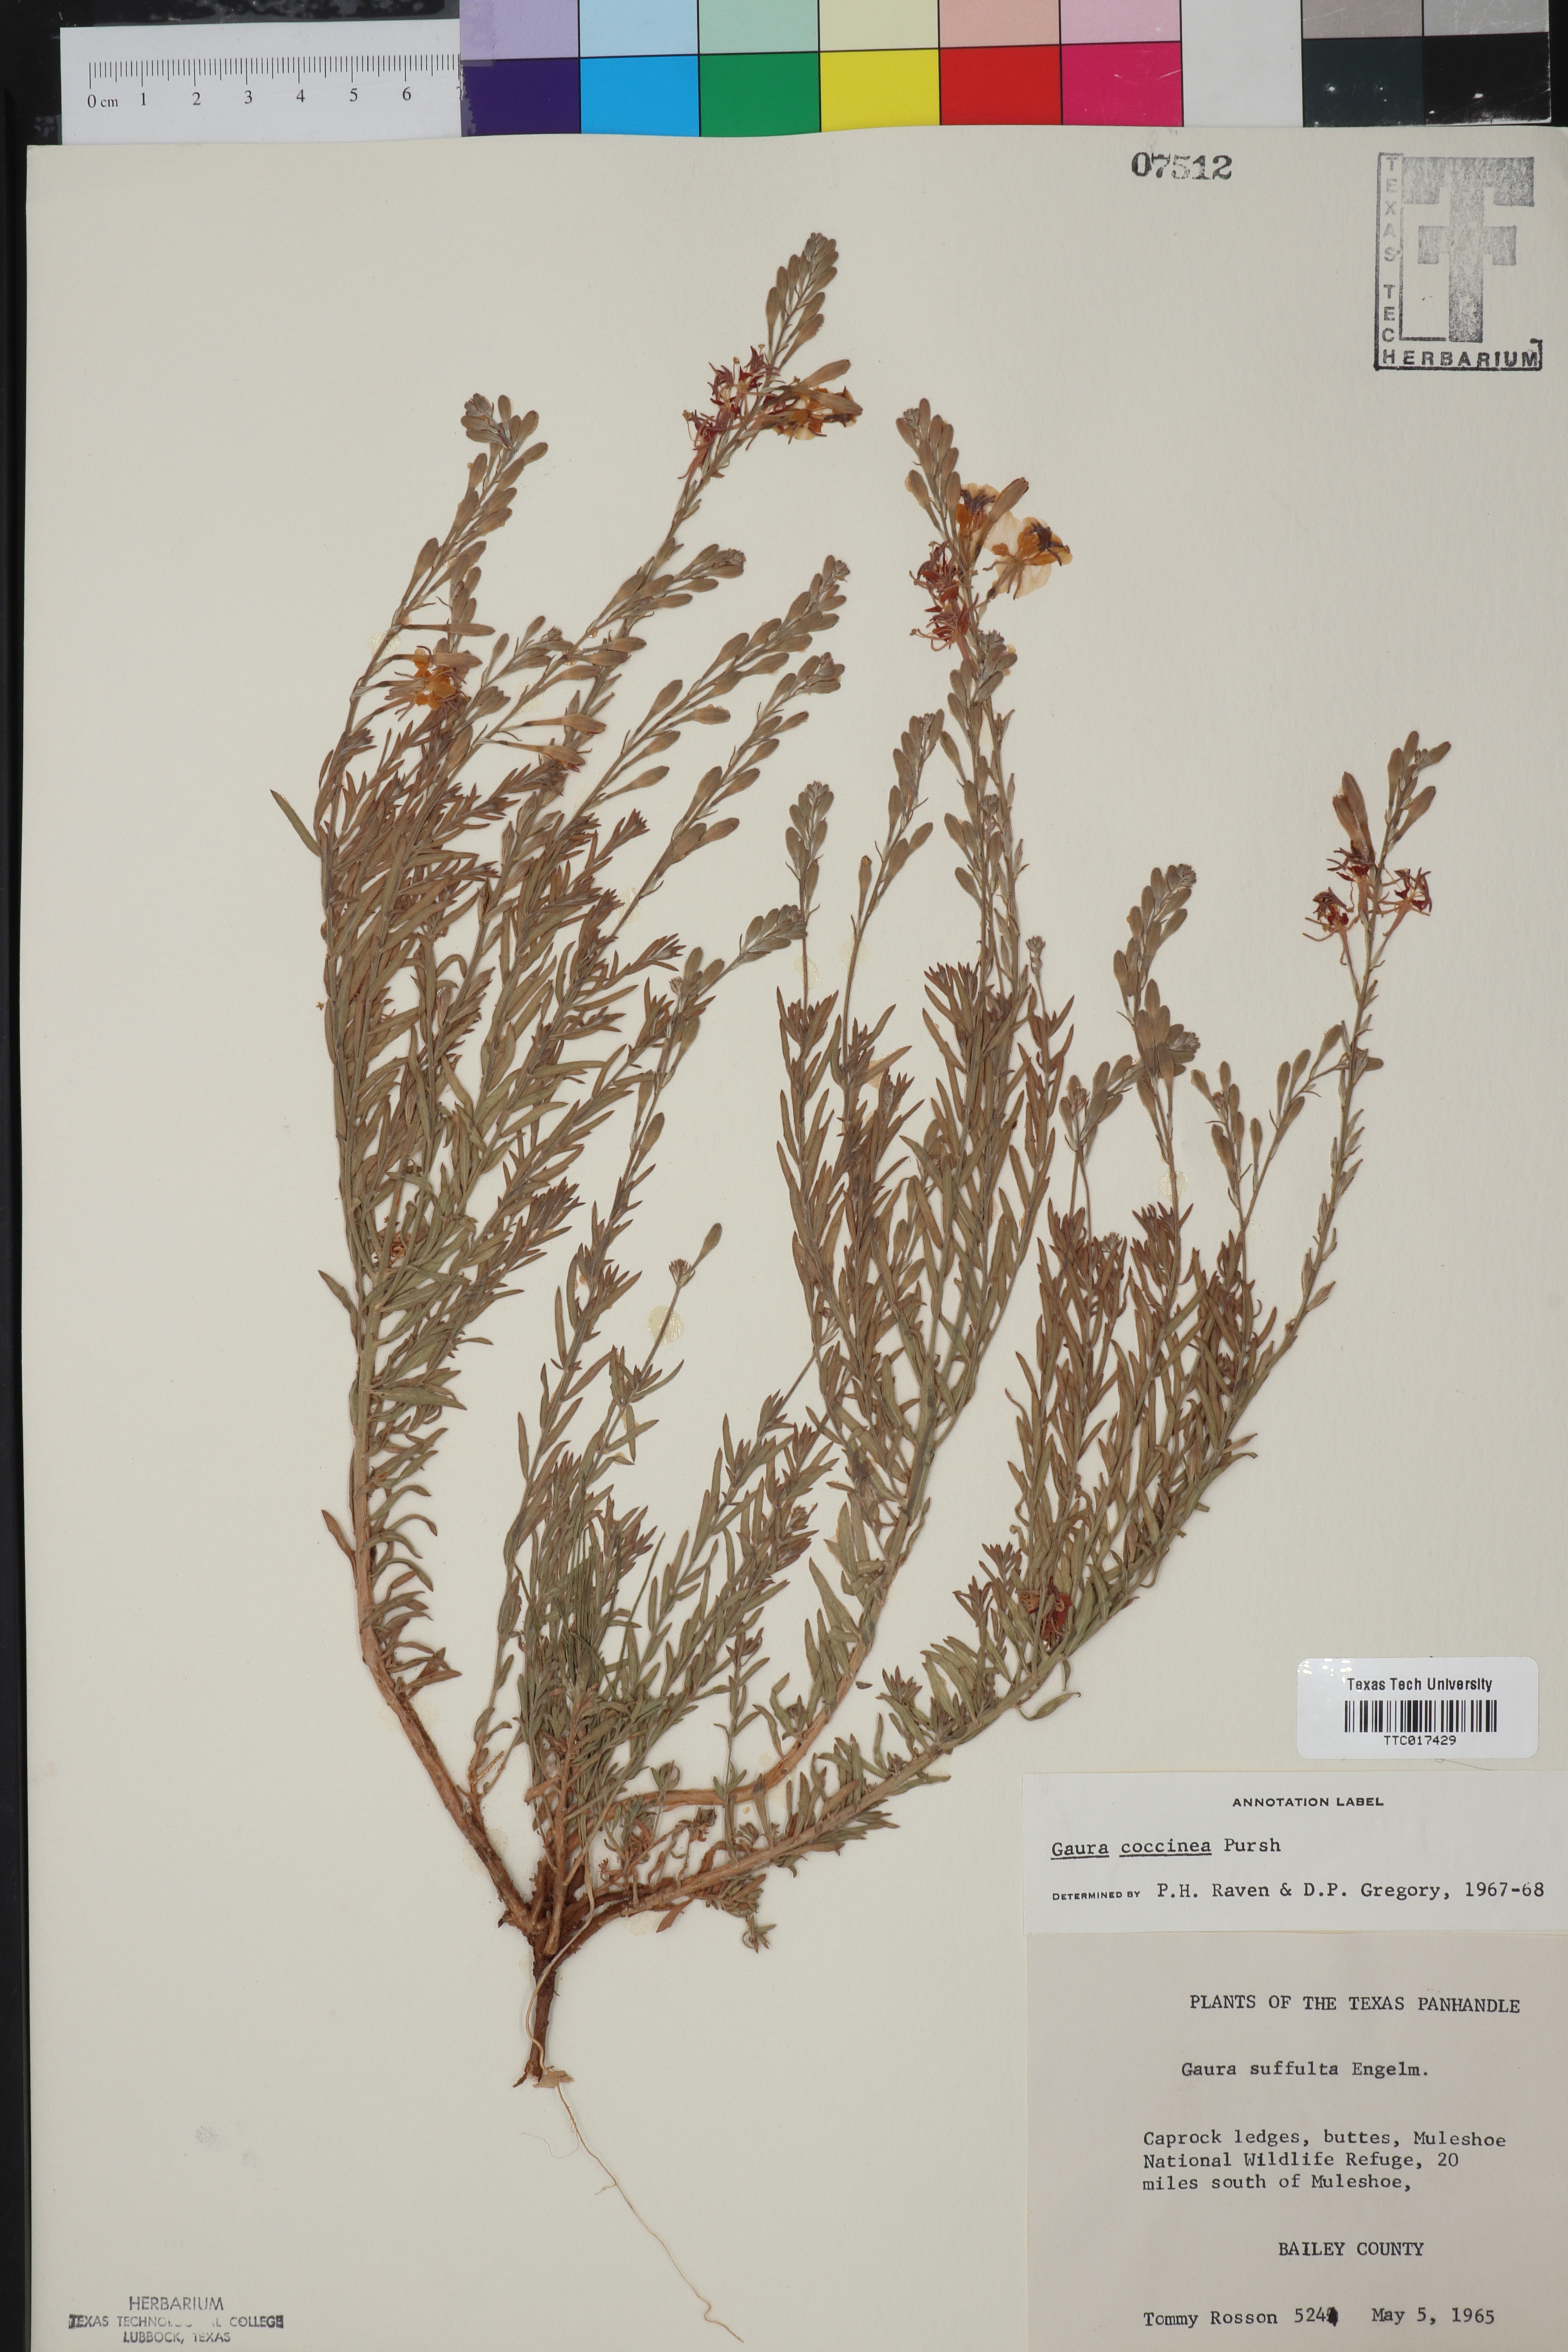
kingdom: Plantae
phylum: Tracheophyta
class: Magnoliopsida
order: Myrtales
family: Onagraceae
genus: Oenothera
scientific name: Oenothera suffrutescens
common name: Scarlet beeblossom
